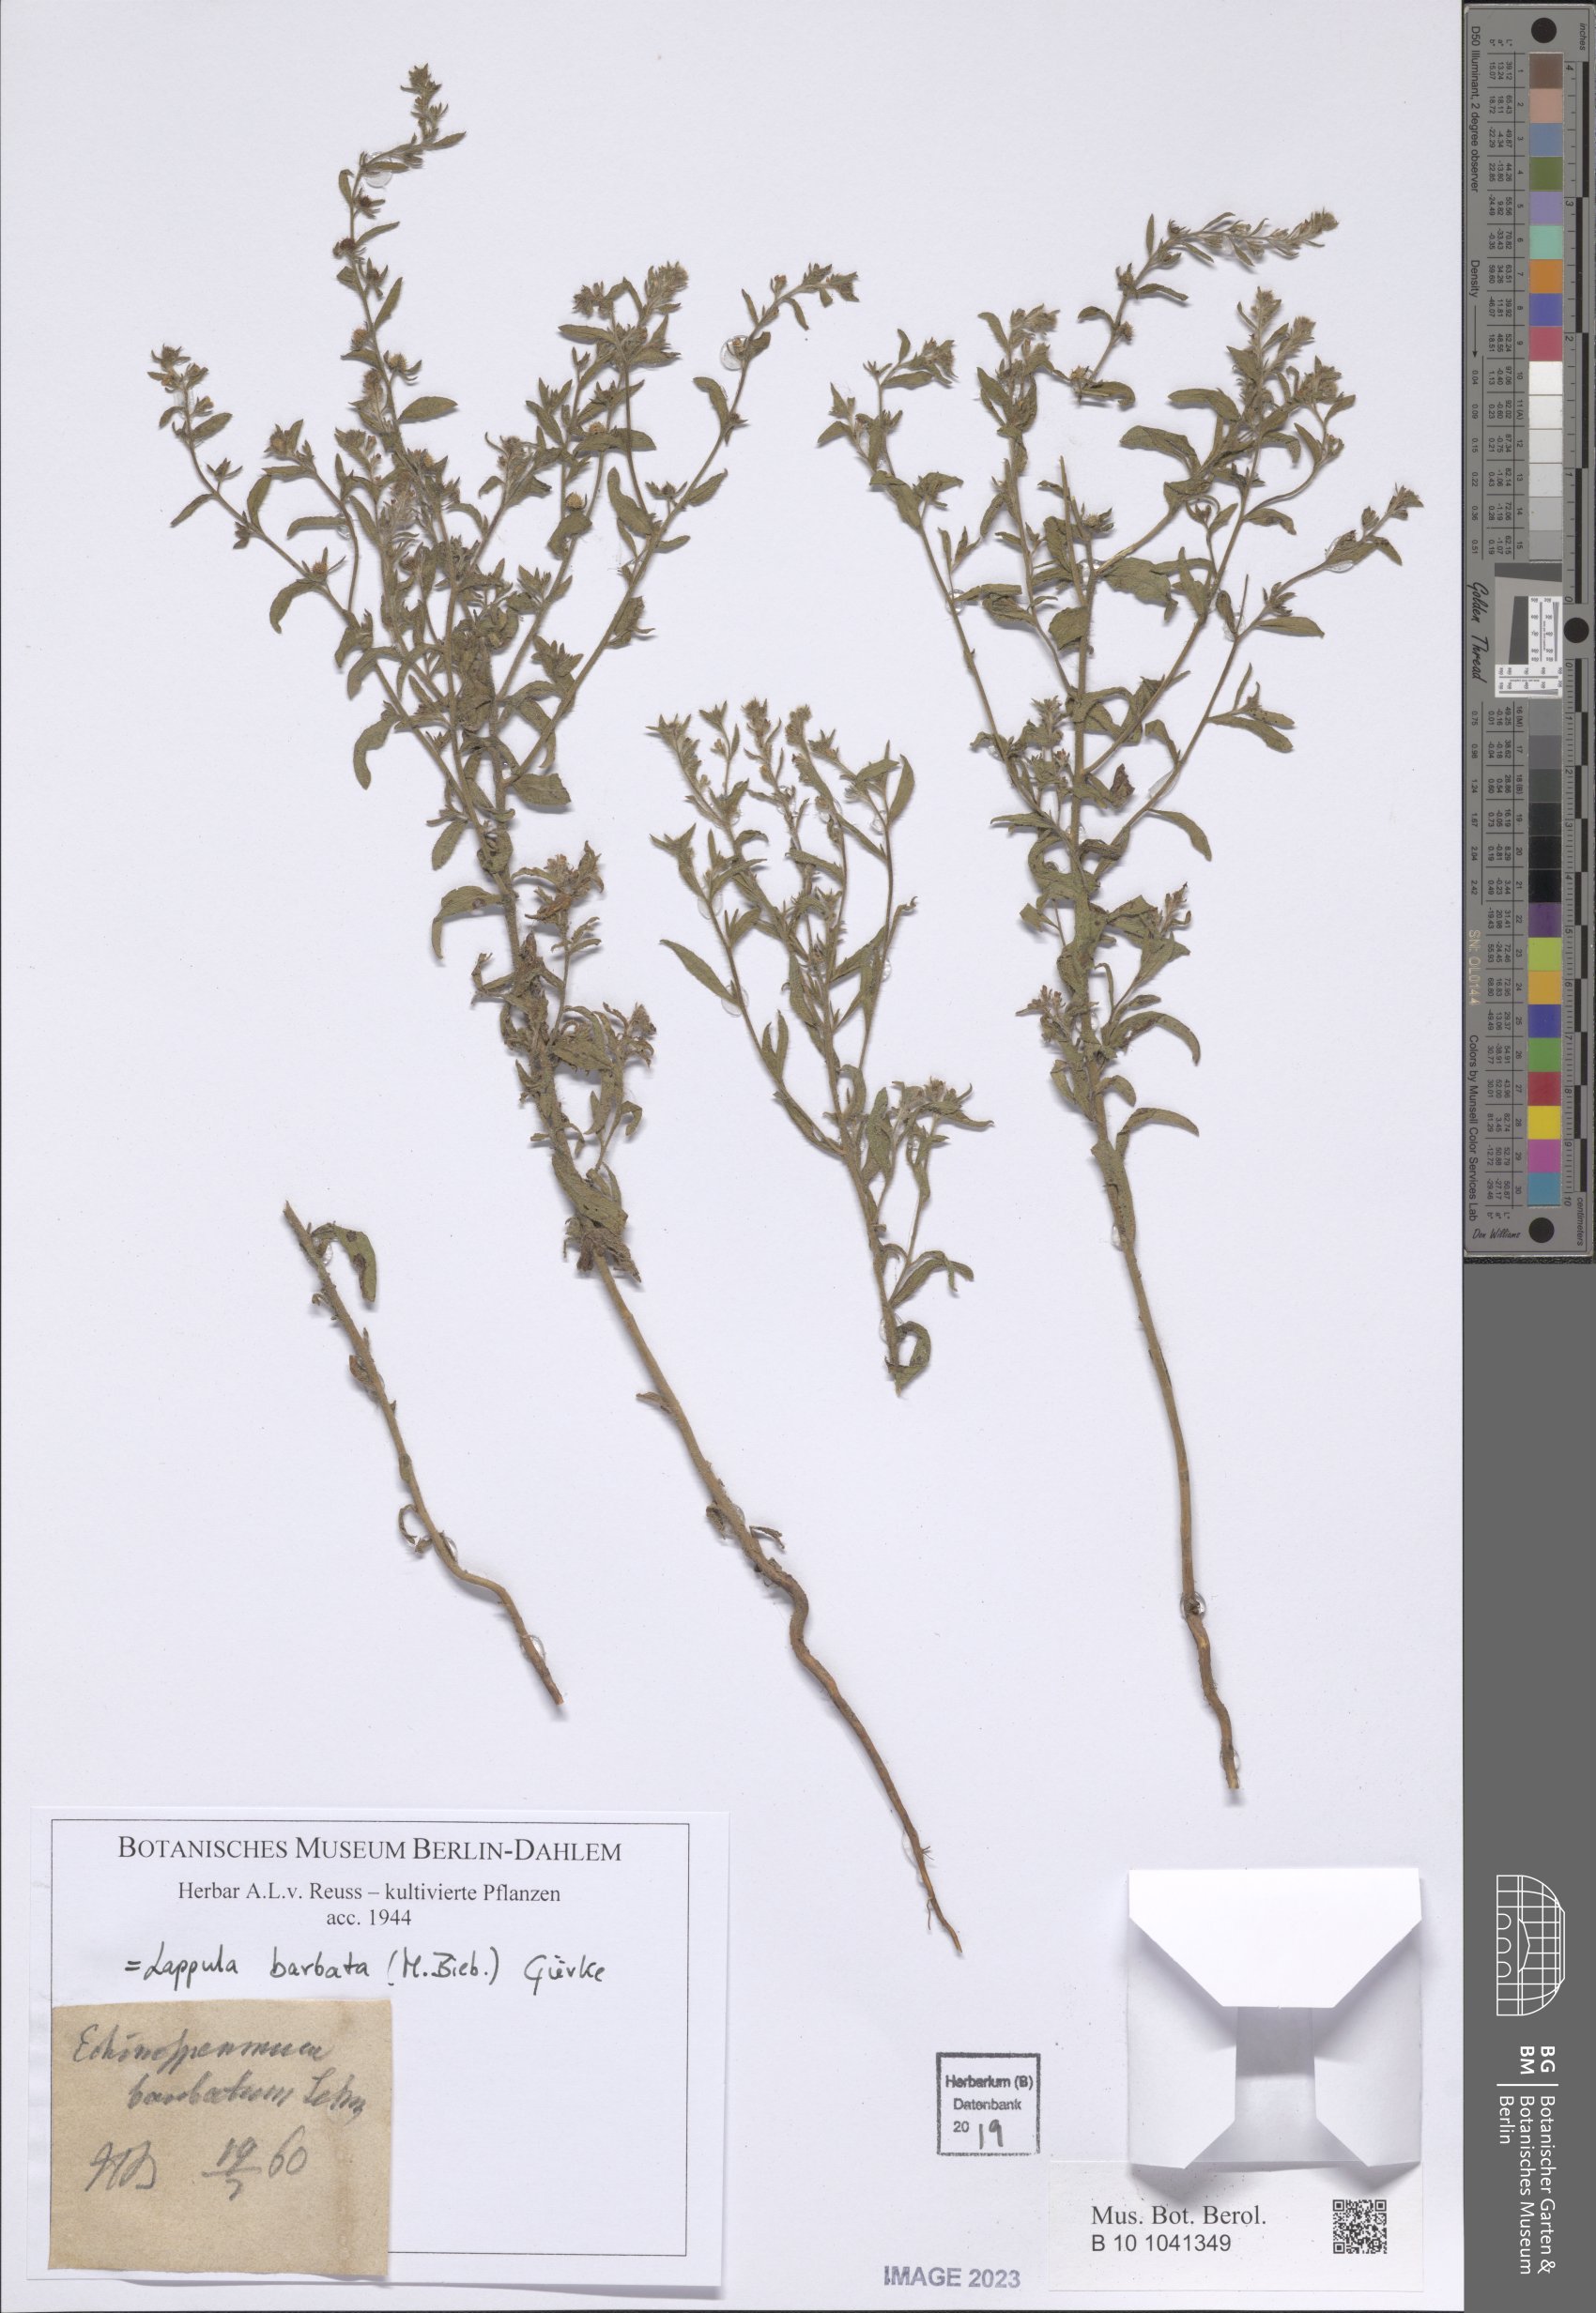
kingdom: Plantae
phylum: Tracheophyta
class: Magnoliopsida
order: Boraginales
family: Boraginaceae
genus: Lappula
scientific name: Lappula barbata
